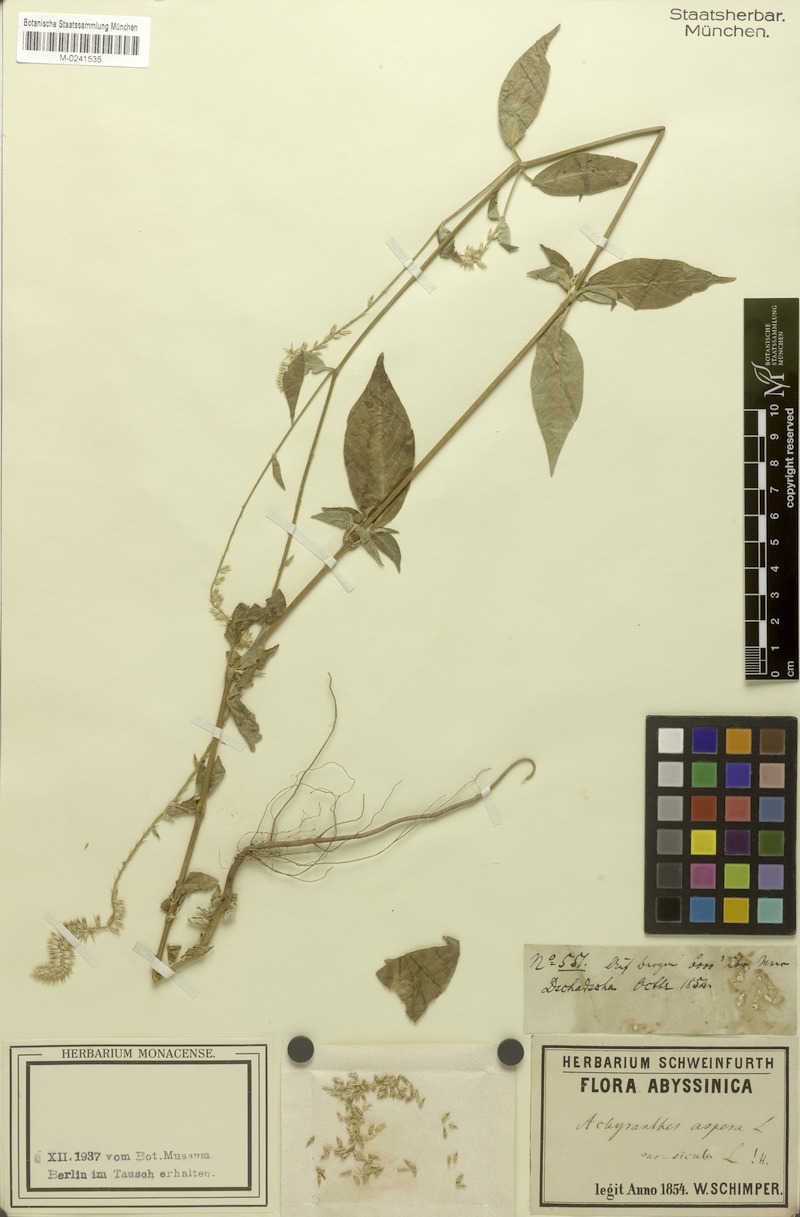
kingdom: Plantae
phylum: Tracheophyta
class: Magnoliopsida
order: Caryophyllales
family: Amaranthaceae
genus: Achyranthes
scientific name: Achyranthes aspera
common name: Devil's horsewhip
